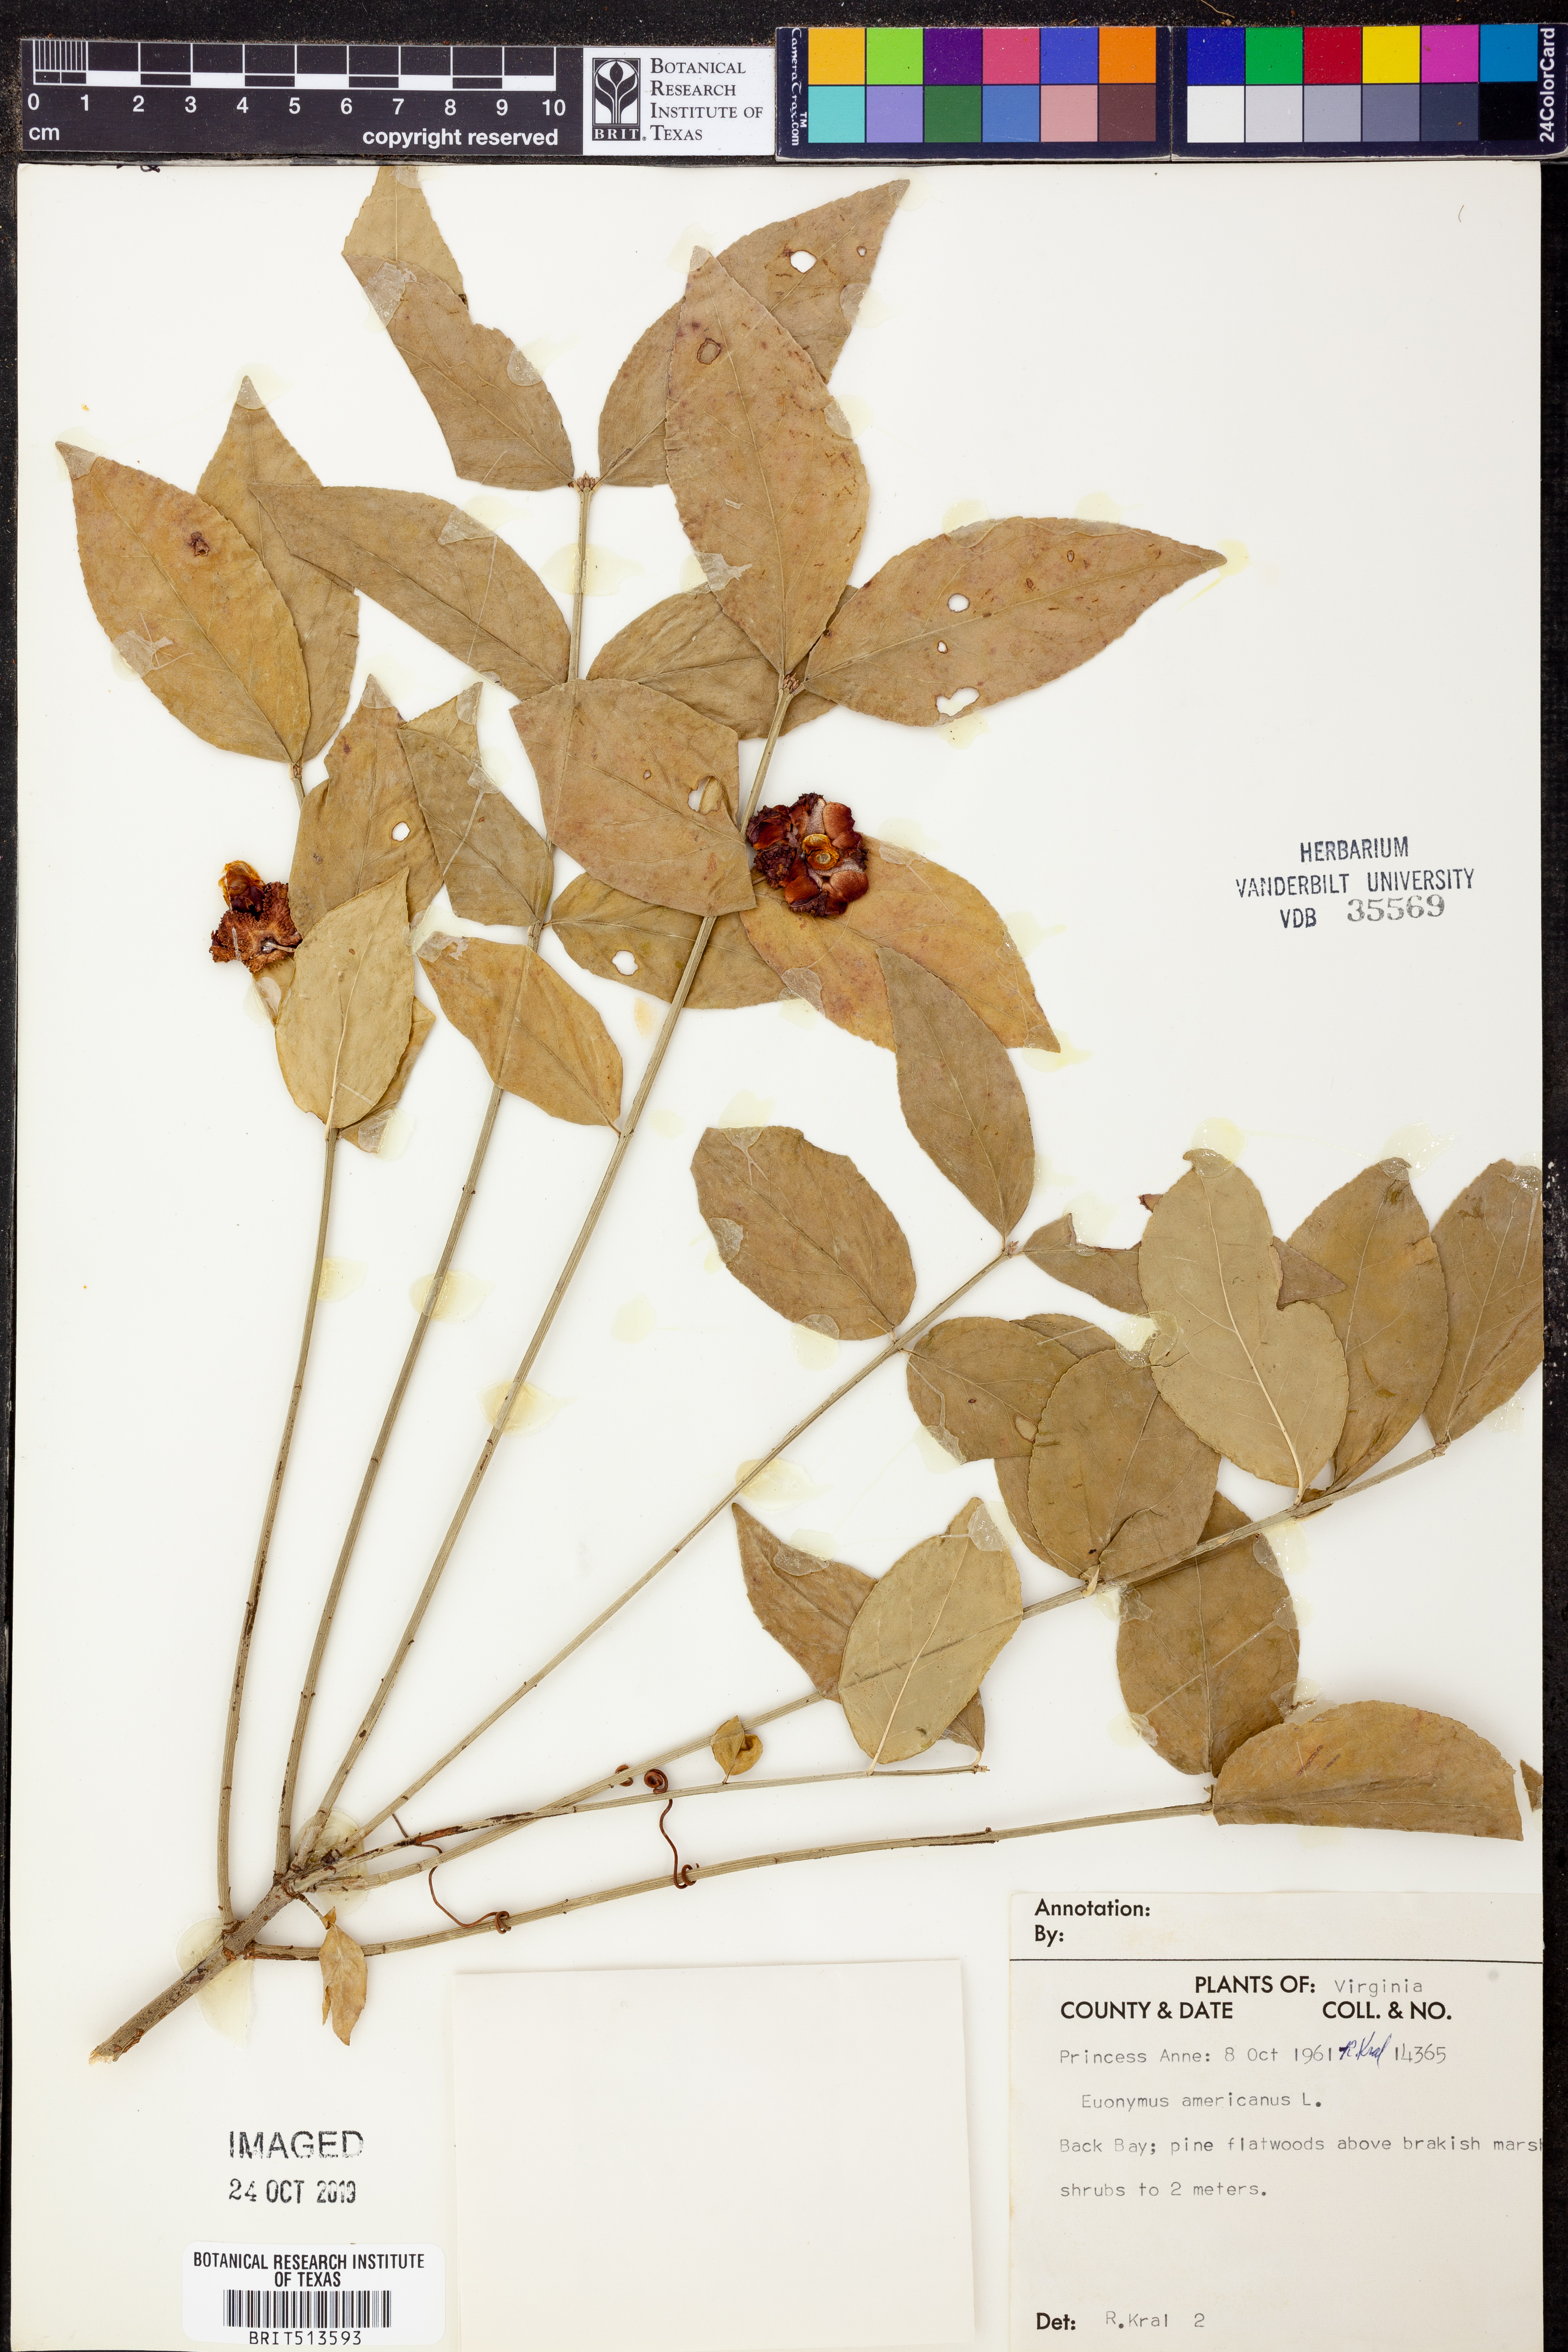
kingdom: Plantae
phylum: Tracheophyta
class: Magnoliopsida
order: Celastrales
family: Celastraceae
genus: Euonymus
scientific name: Euonymus americanus
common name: Bursting-heart
